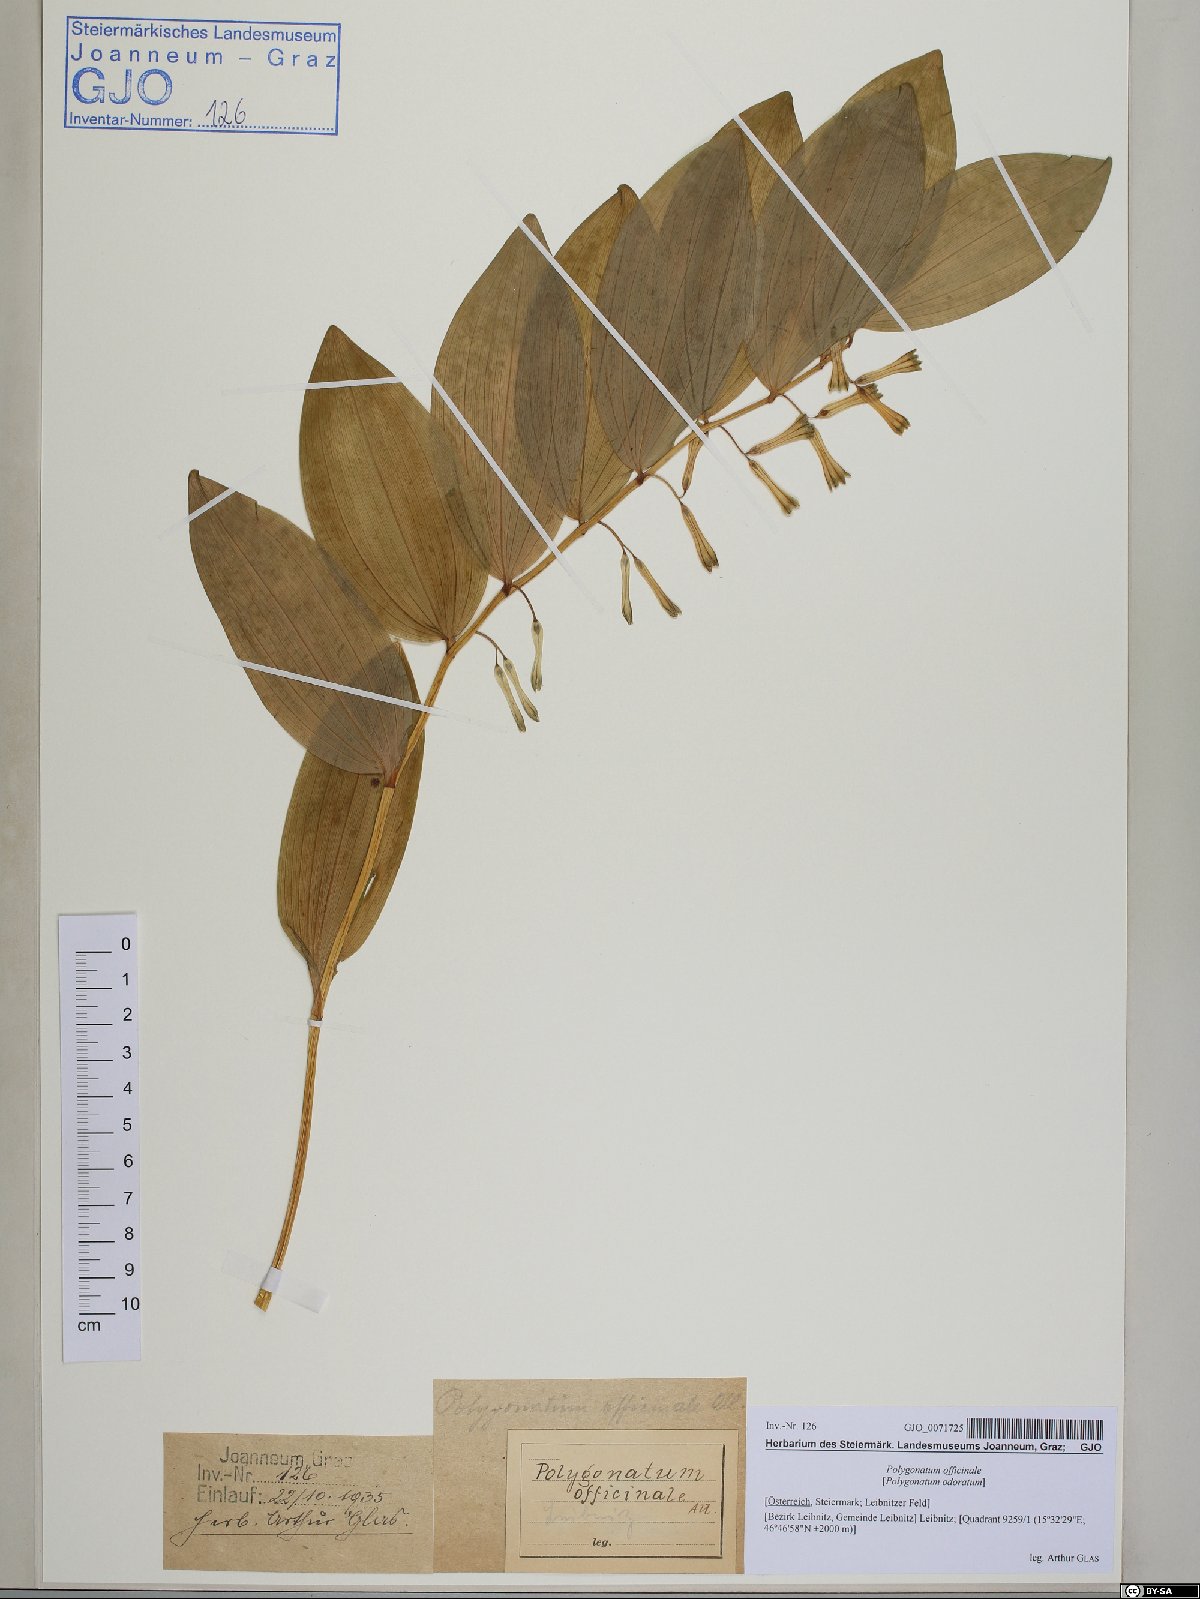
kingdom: Plantae
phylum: Tracheophyta
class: Liliopsida
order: Asparagales
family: Asparagaceae
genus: Polygonatum
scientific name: Polygonatum odoratum
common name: Angular solomon's-seal
